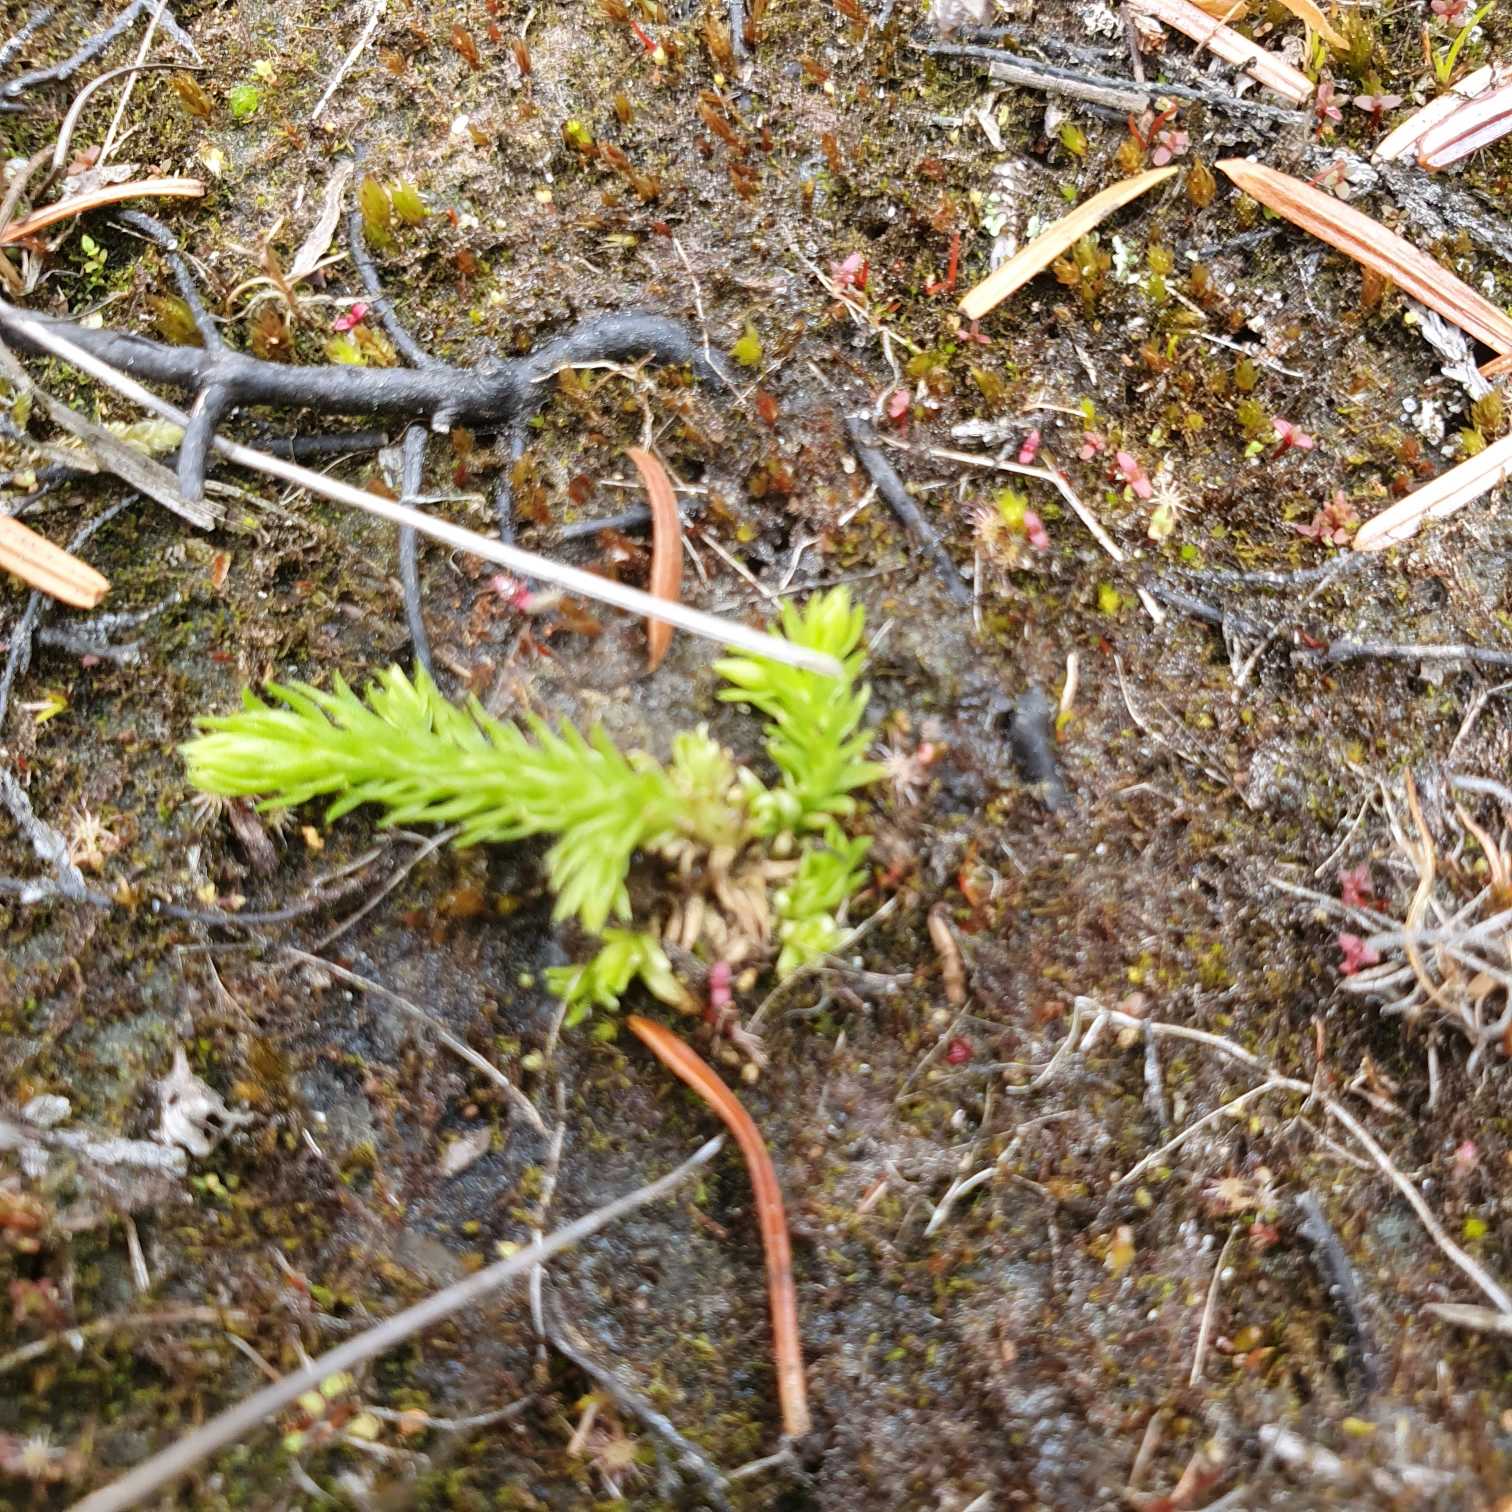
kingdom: Plantae
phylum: Tracheophyta
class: Lycopodiopsida
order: Lycopodiales
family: Lycopodiaceae
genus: Lycopodiella
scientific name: Lycopodiella inundata
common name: Liden ulvefod
